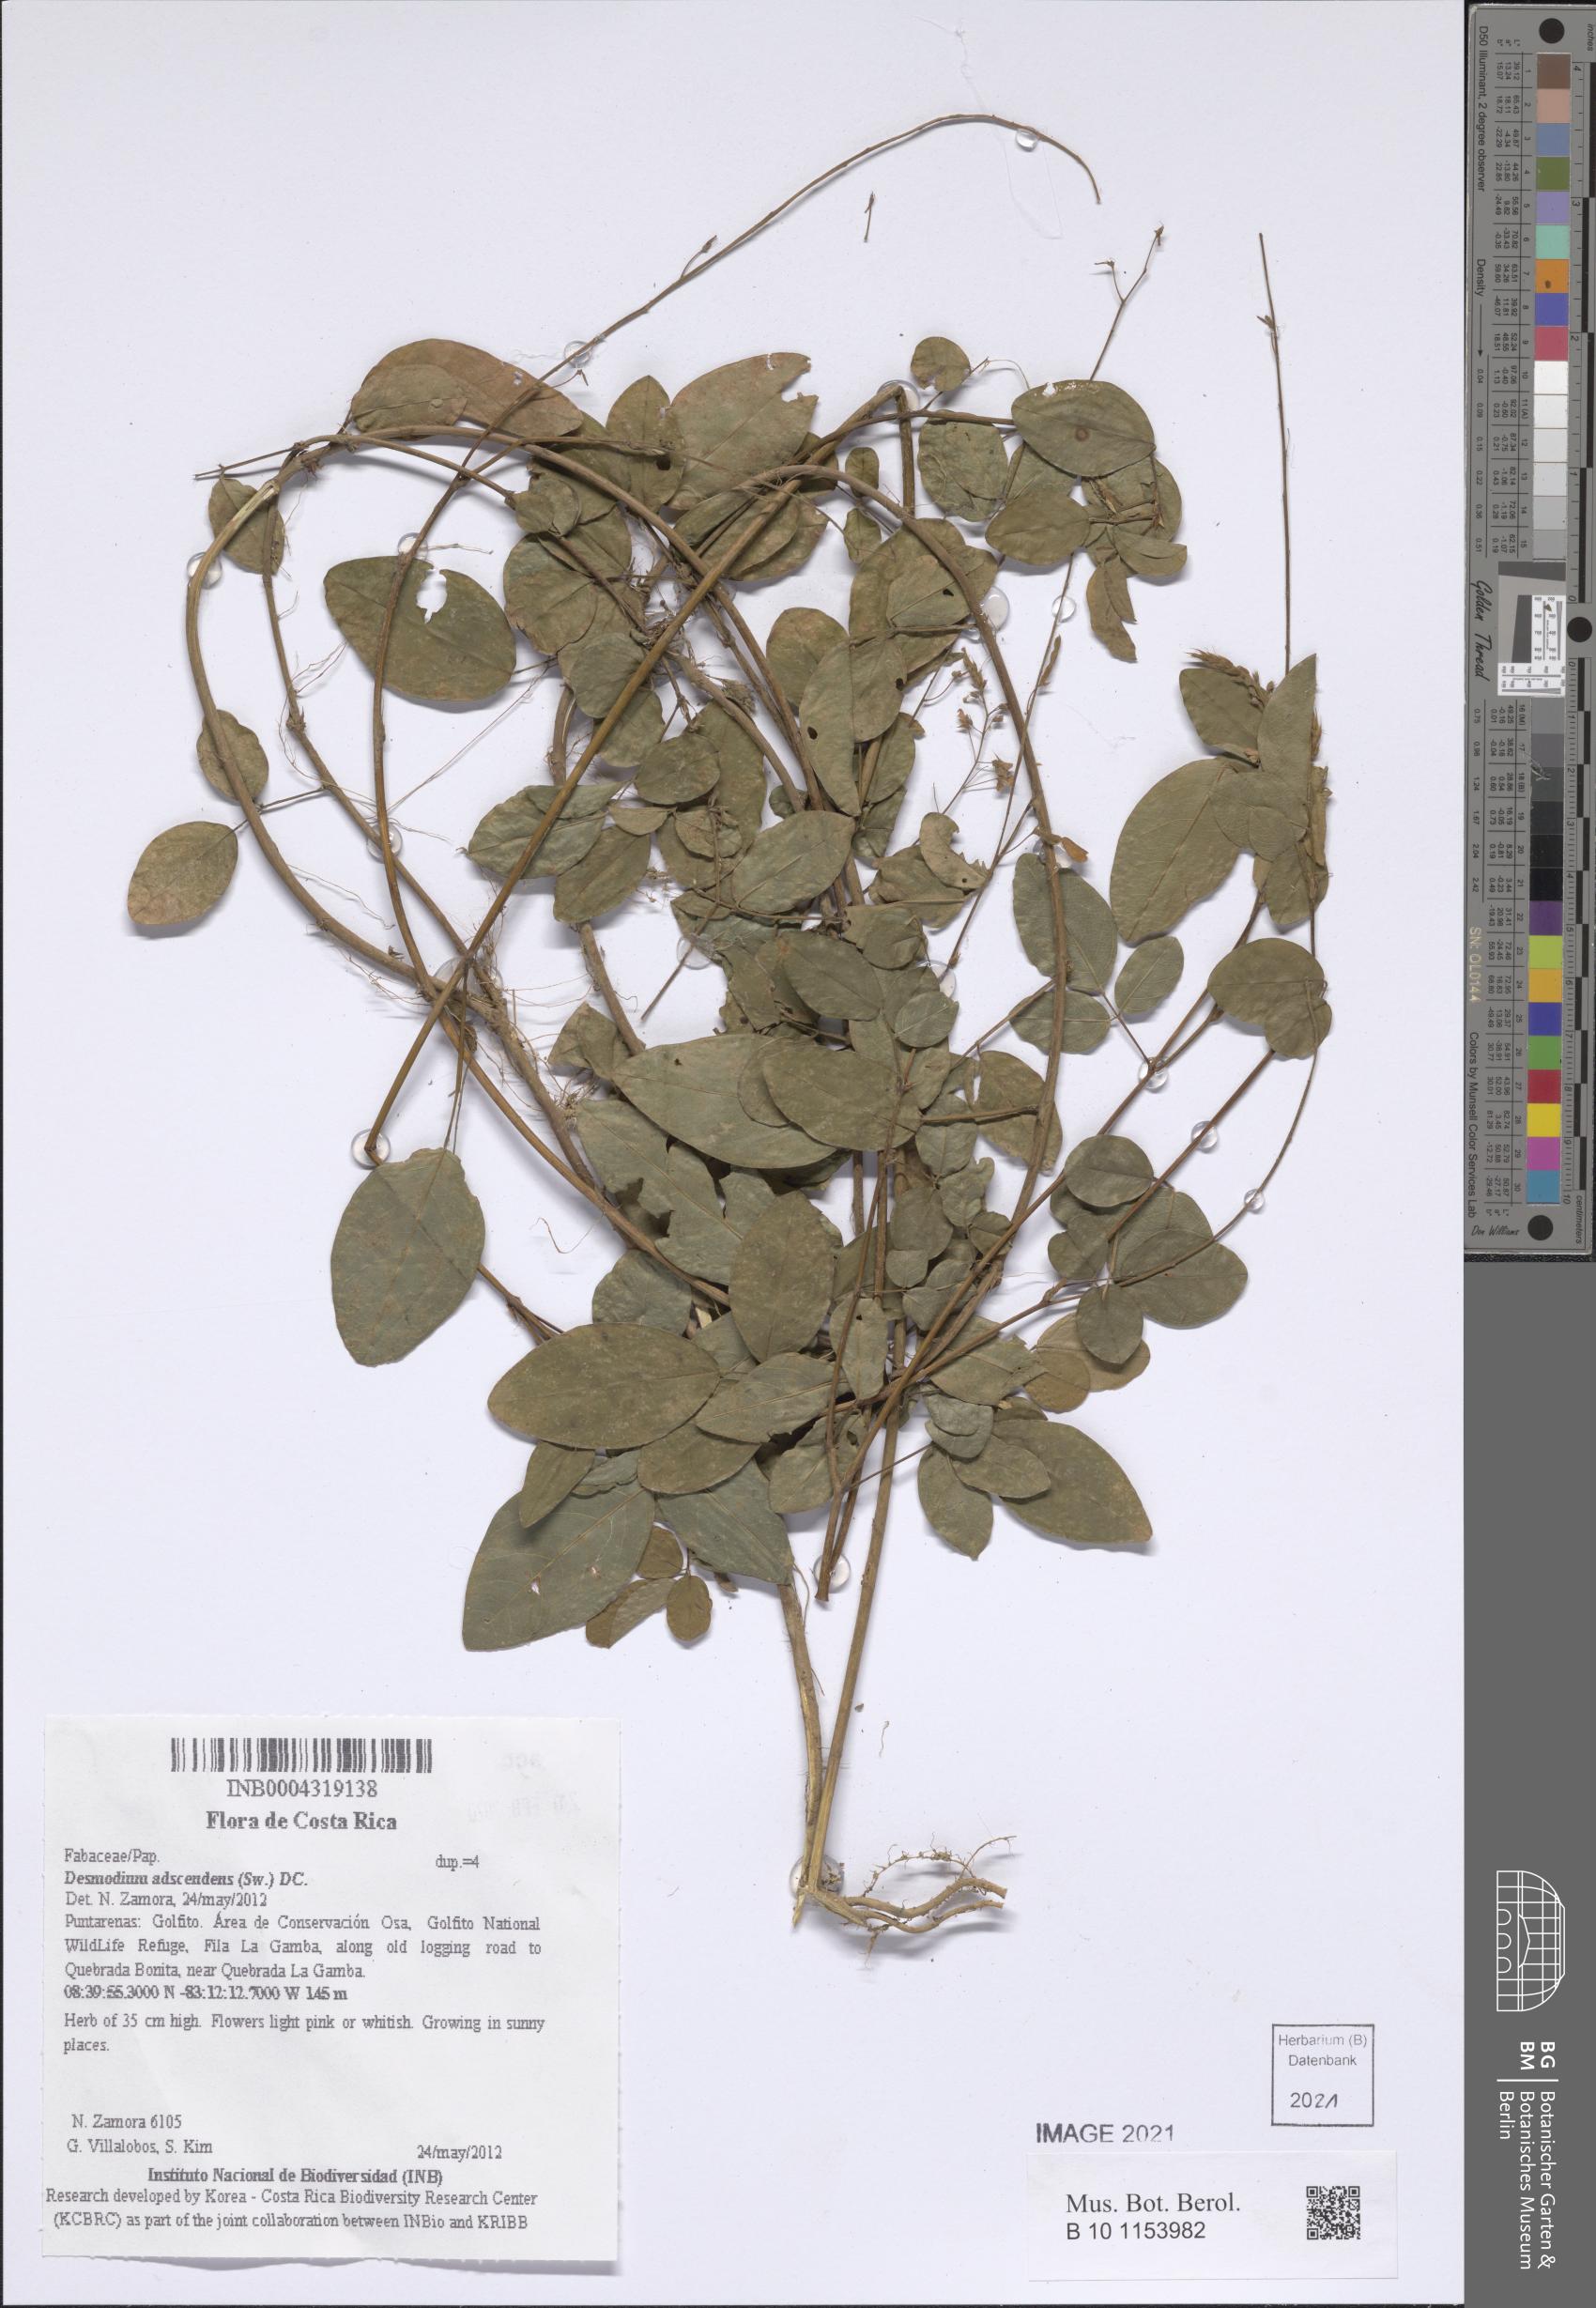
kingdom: Plantae
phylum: Tracheophyta
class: Magnoliopsida
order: Fabales
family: Fabaceae
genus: Grona
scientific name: Grona adscendens
